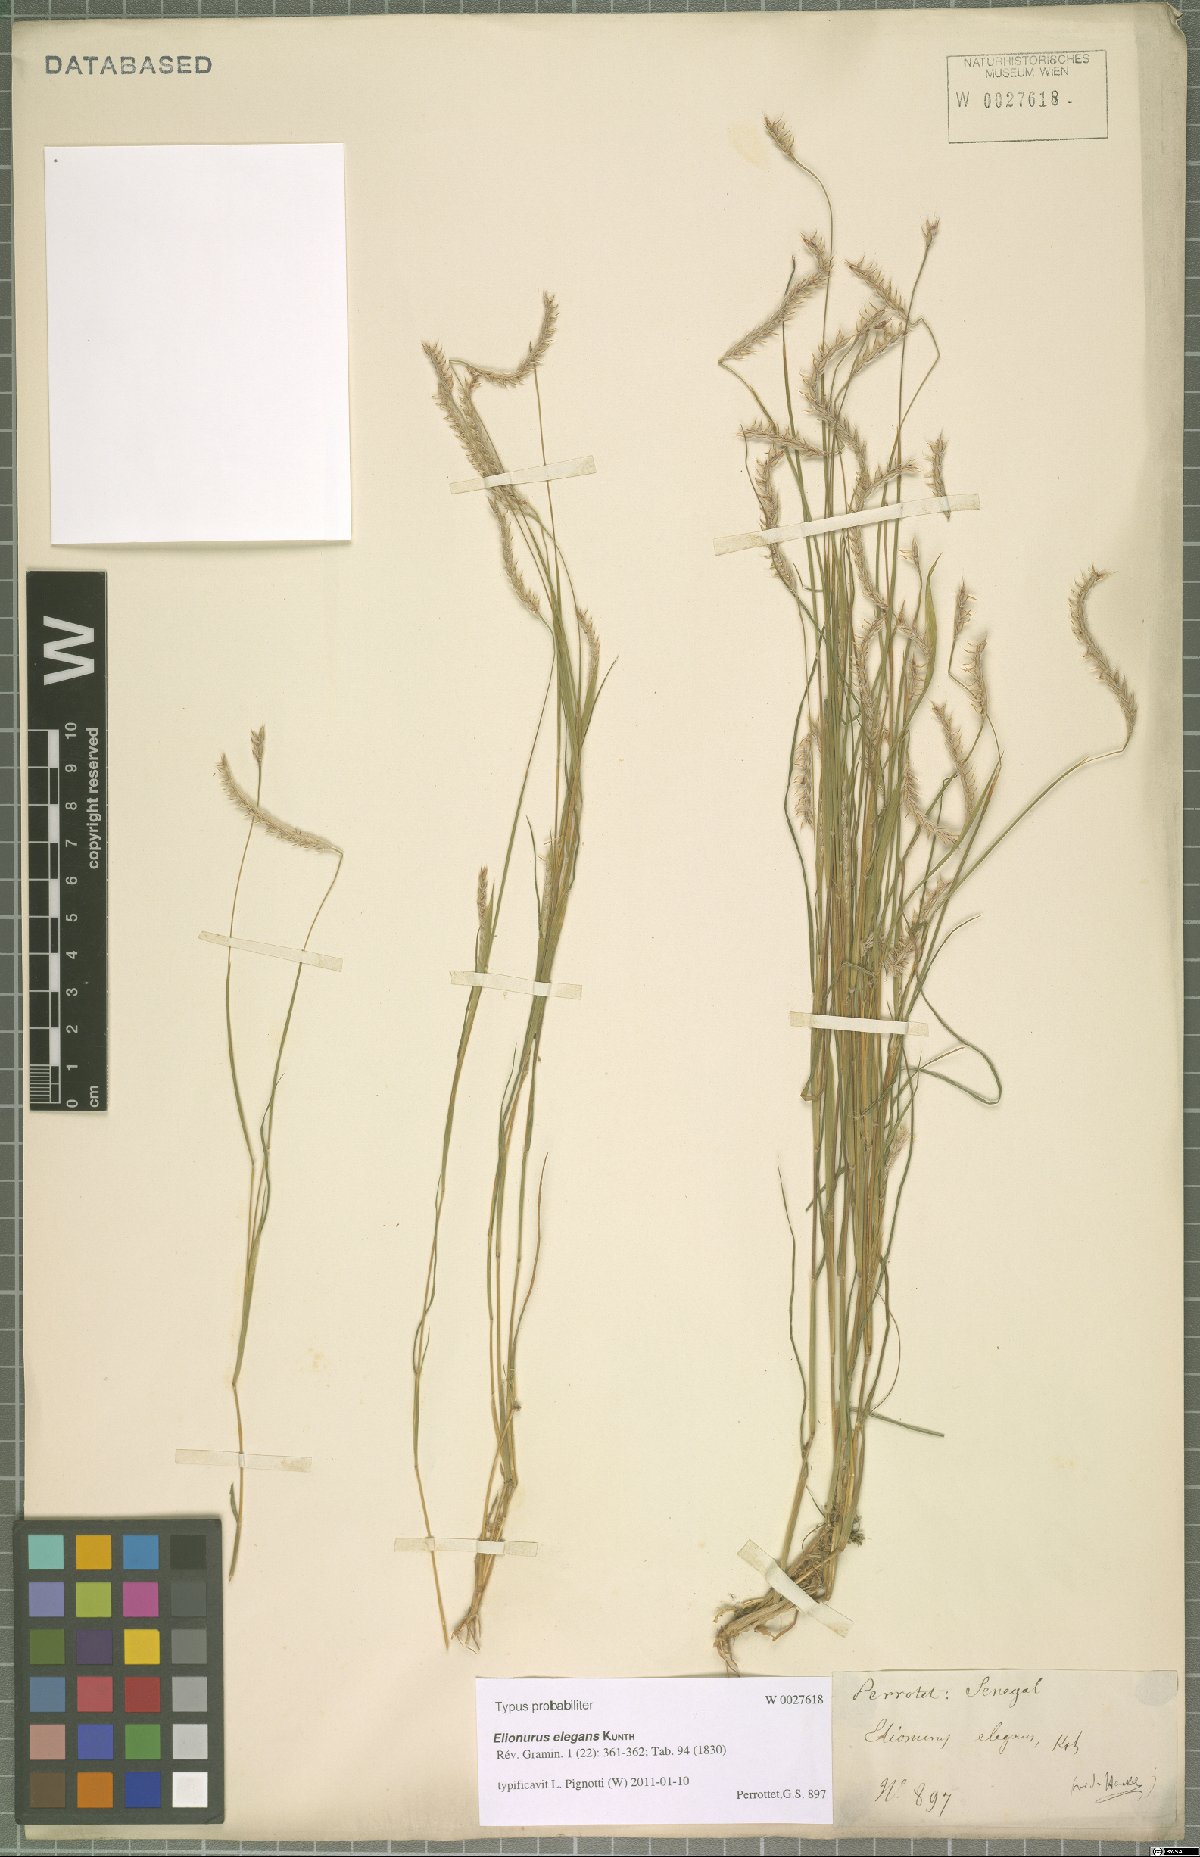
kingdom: Plantae
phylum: Tracheophyta
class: Liliopsida
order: Poales
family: Poaceae
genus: Elionurus
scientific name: Elionurus elegans
